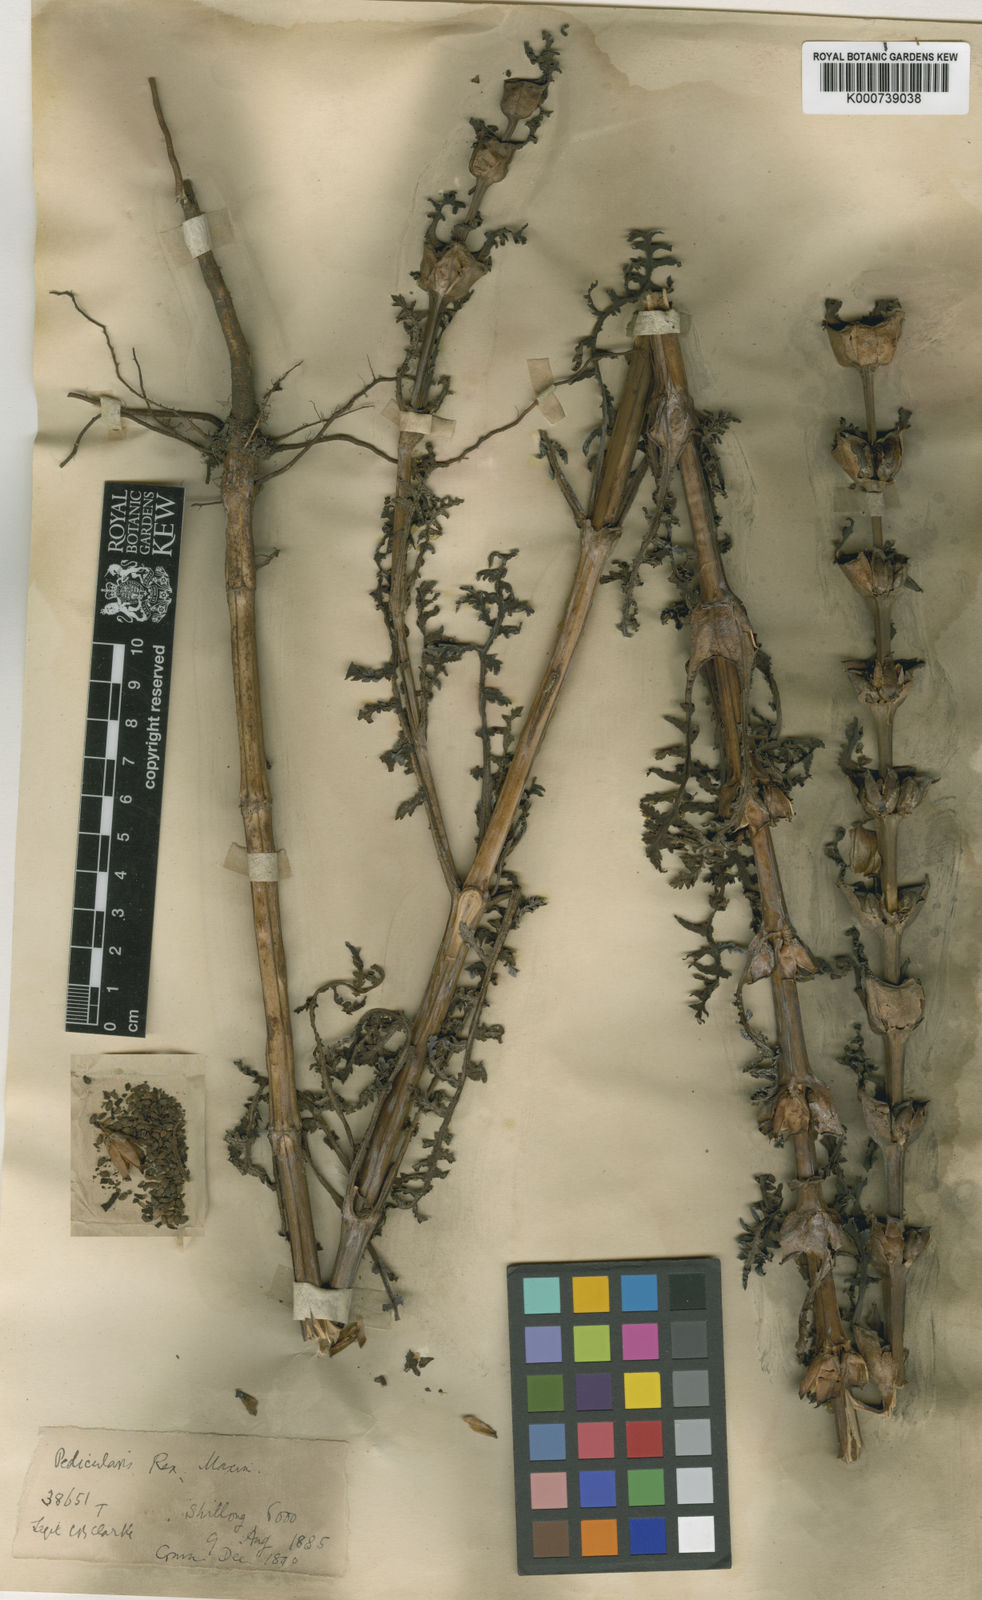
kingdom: Plantae
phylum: Tracheophyta
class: Magnoliopsida
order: Lamiales
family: Orobanchaceae
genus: Pedicularis
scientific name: Pedicularis
